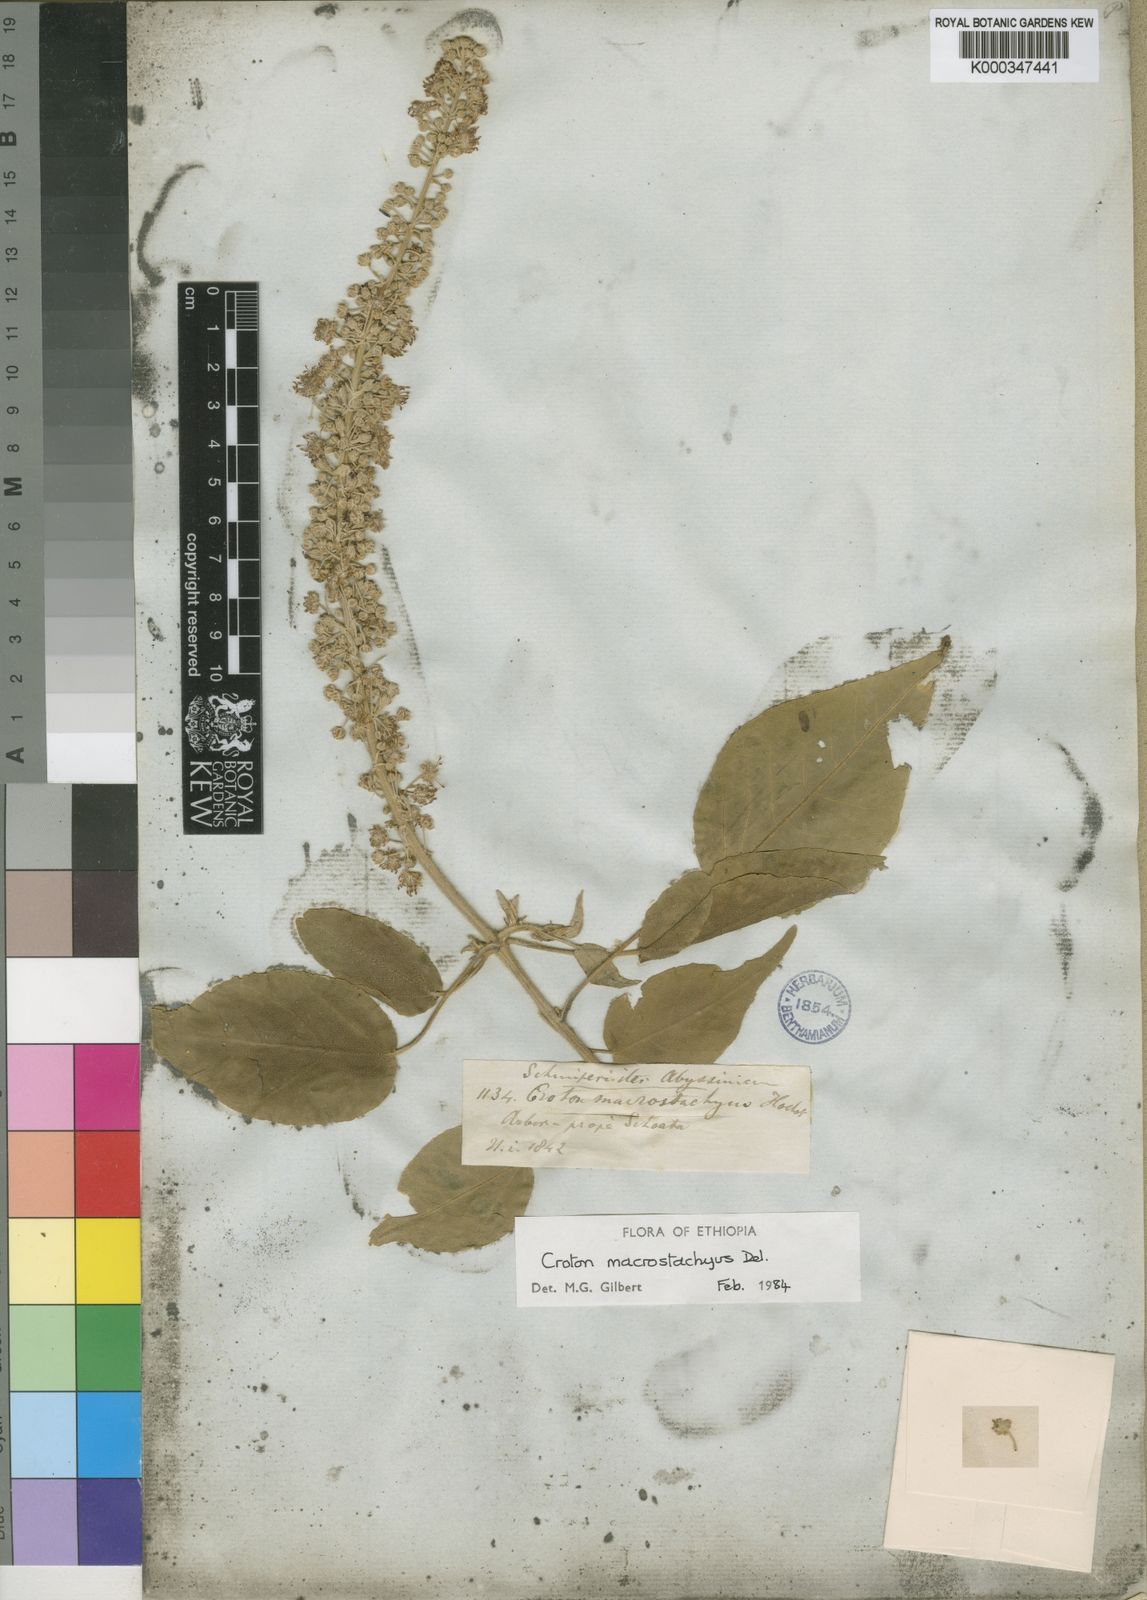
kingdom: Plantae
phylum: Tracheophyta
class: Magnoliopsida
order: Malpighiales
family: Euphorbiaceae
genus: Croton
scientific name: Croton macrostachyus
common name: Mutundu
